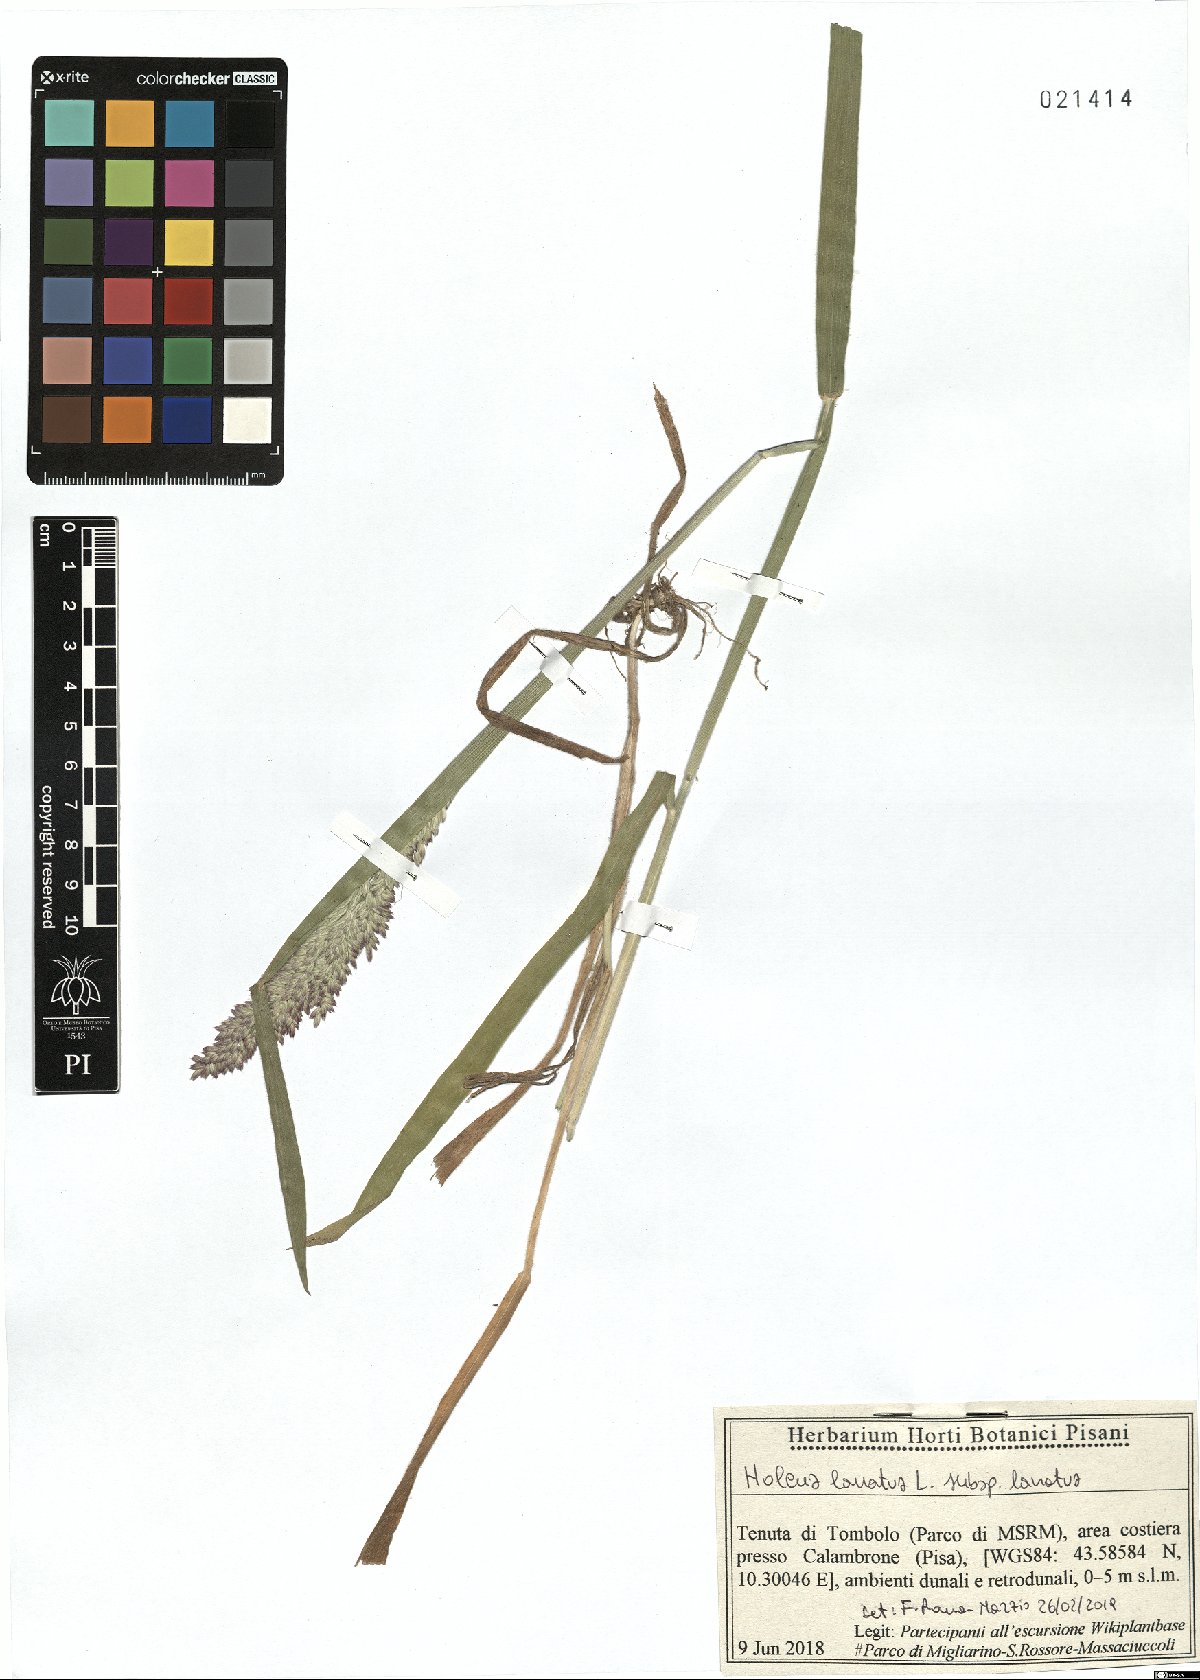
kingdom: Plantae
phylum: Tracheophyta
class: Liliopsida
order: Poales
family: Poaceae
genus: Holcus
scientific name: Holcus lanatus
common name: Yorkshire-fog
